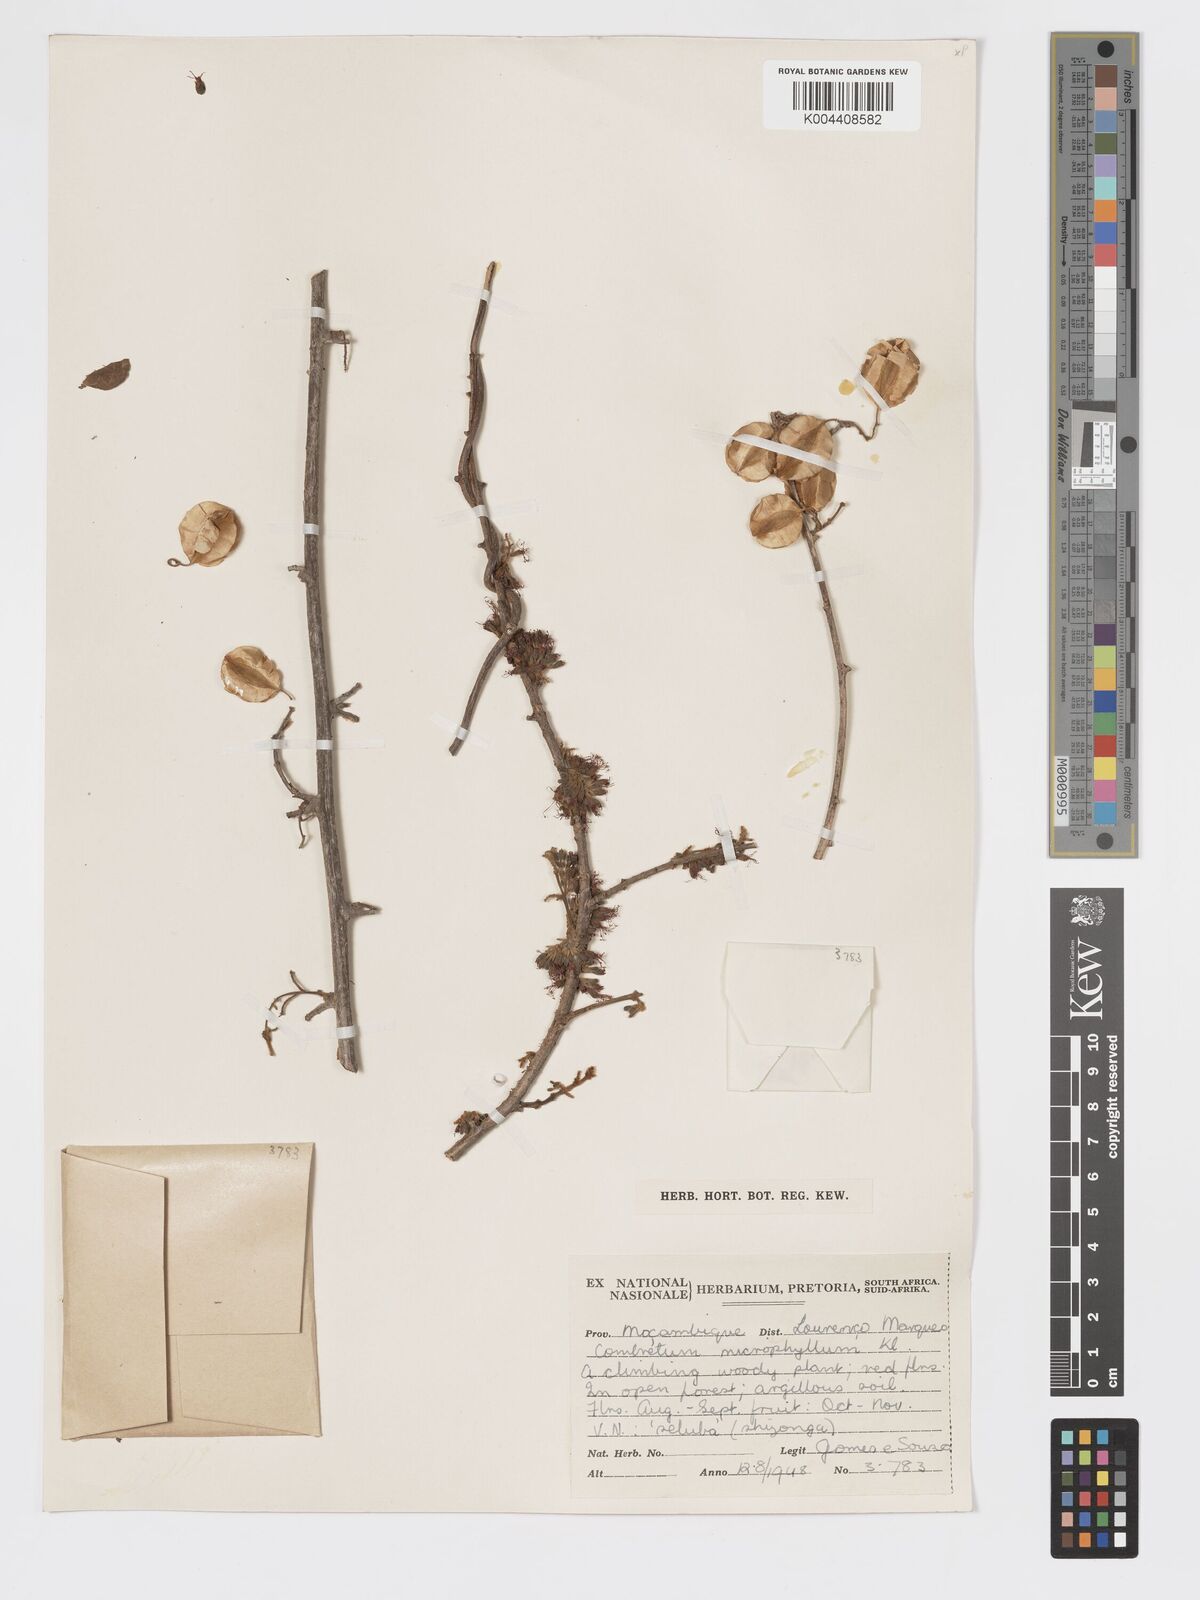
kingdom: Plantae
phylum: Tracheophyta
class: Magnoliopsida
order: Myrtales
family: Combretaceae
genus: Combretum
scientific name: Combretum microphyllum
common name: Burningbush
